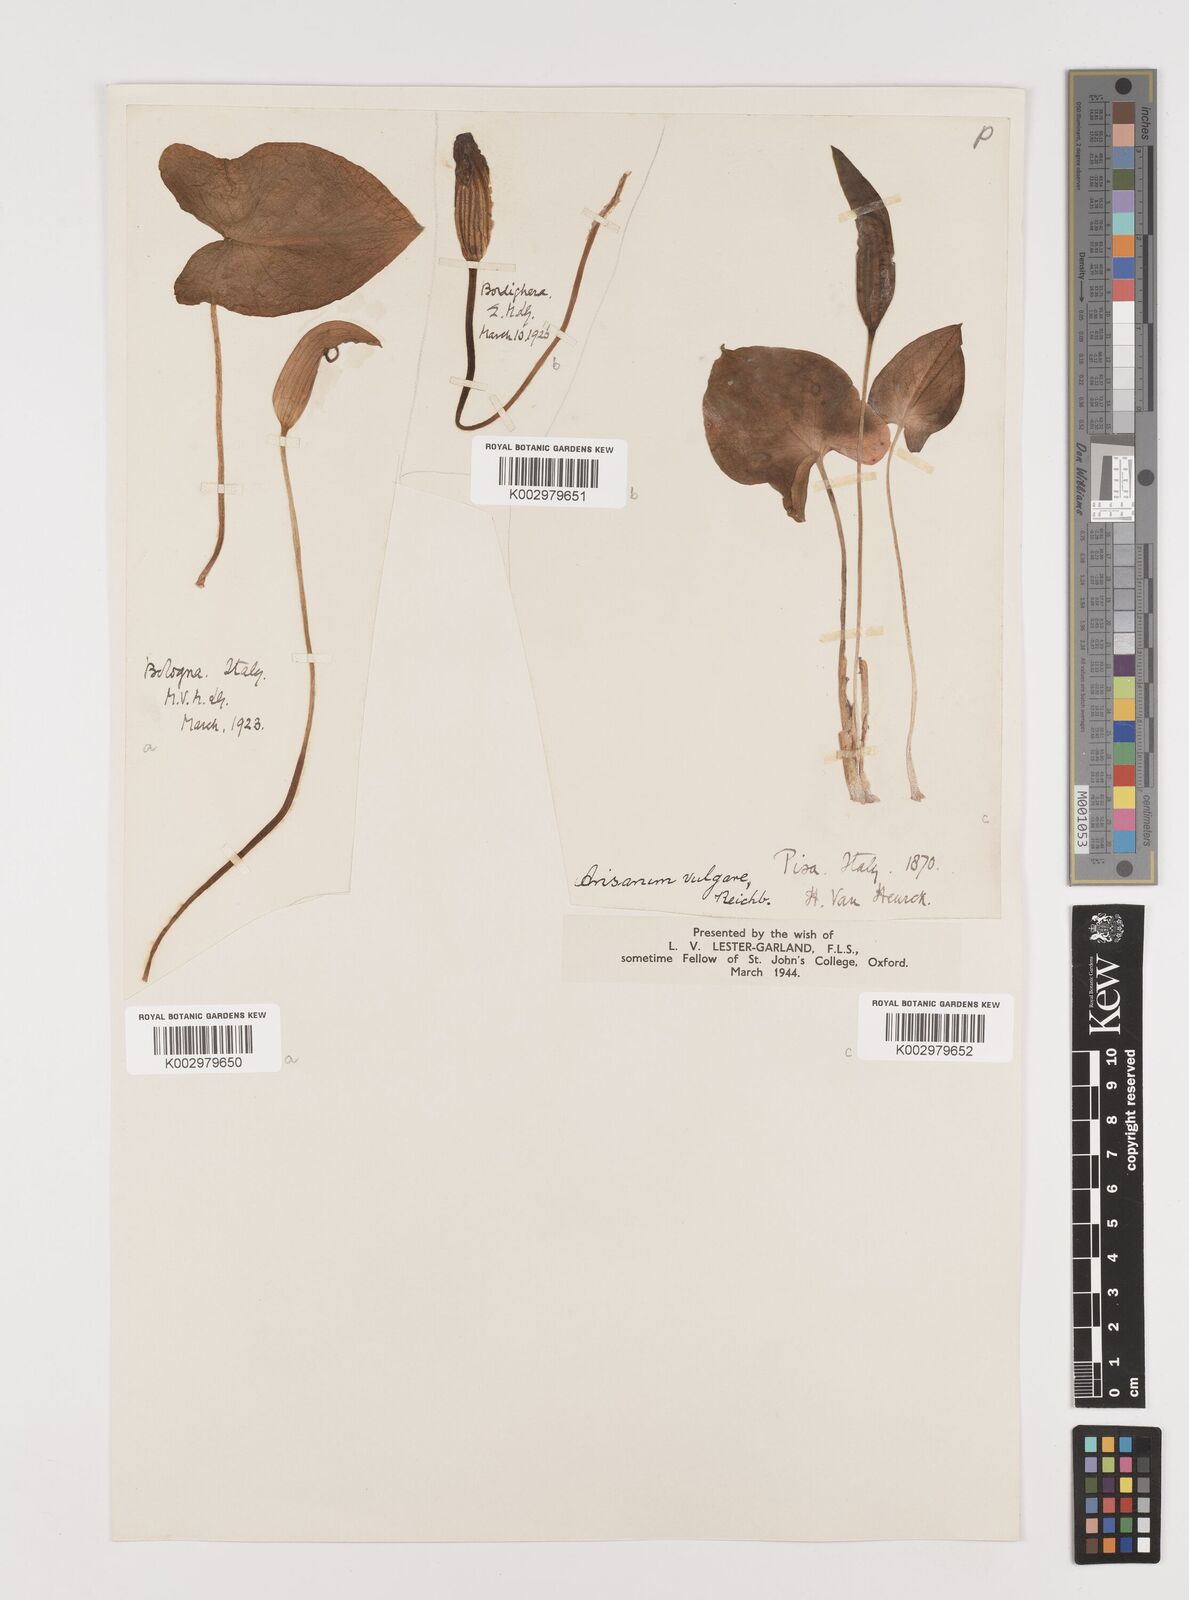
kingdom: Plantae
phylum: Tracheophyta
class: Liliopsida
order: Alismatales
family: Araceae
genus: Arisarum
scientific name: Arisarum vulgare
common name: Common arisarum
